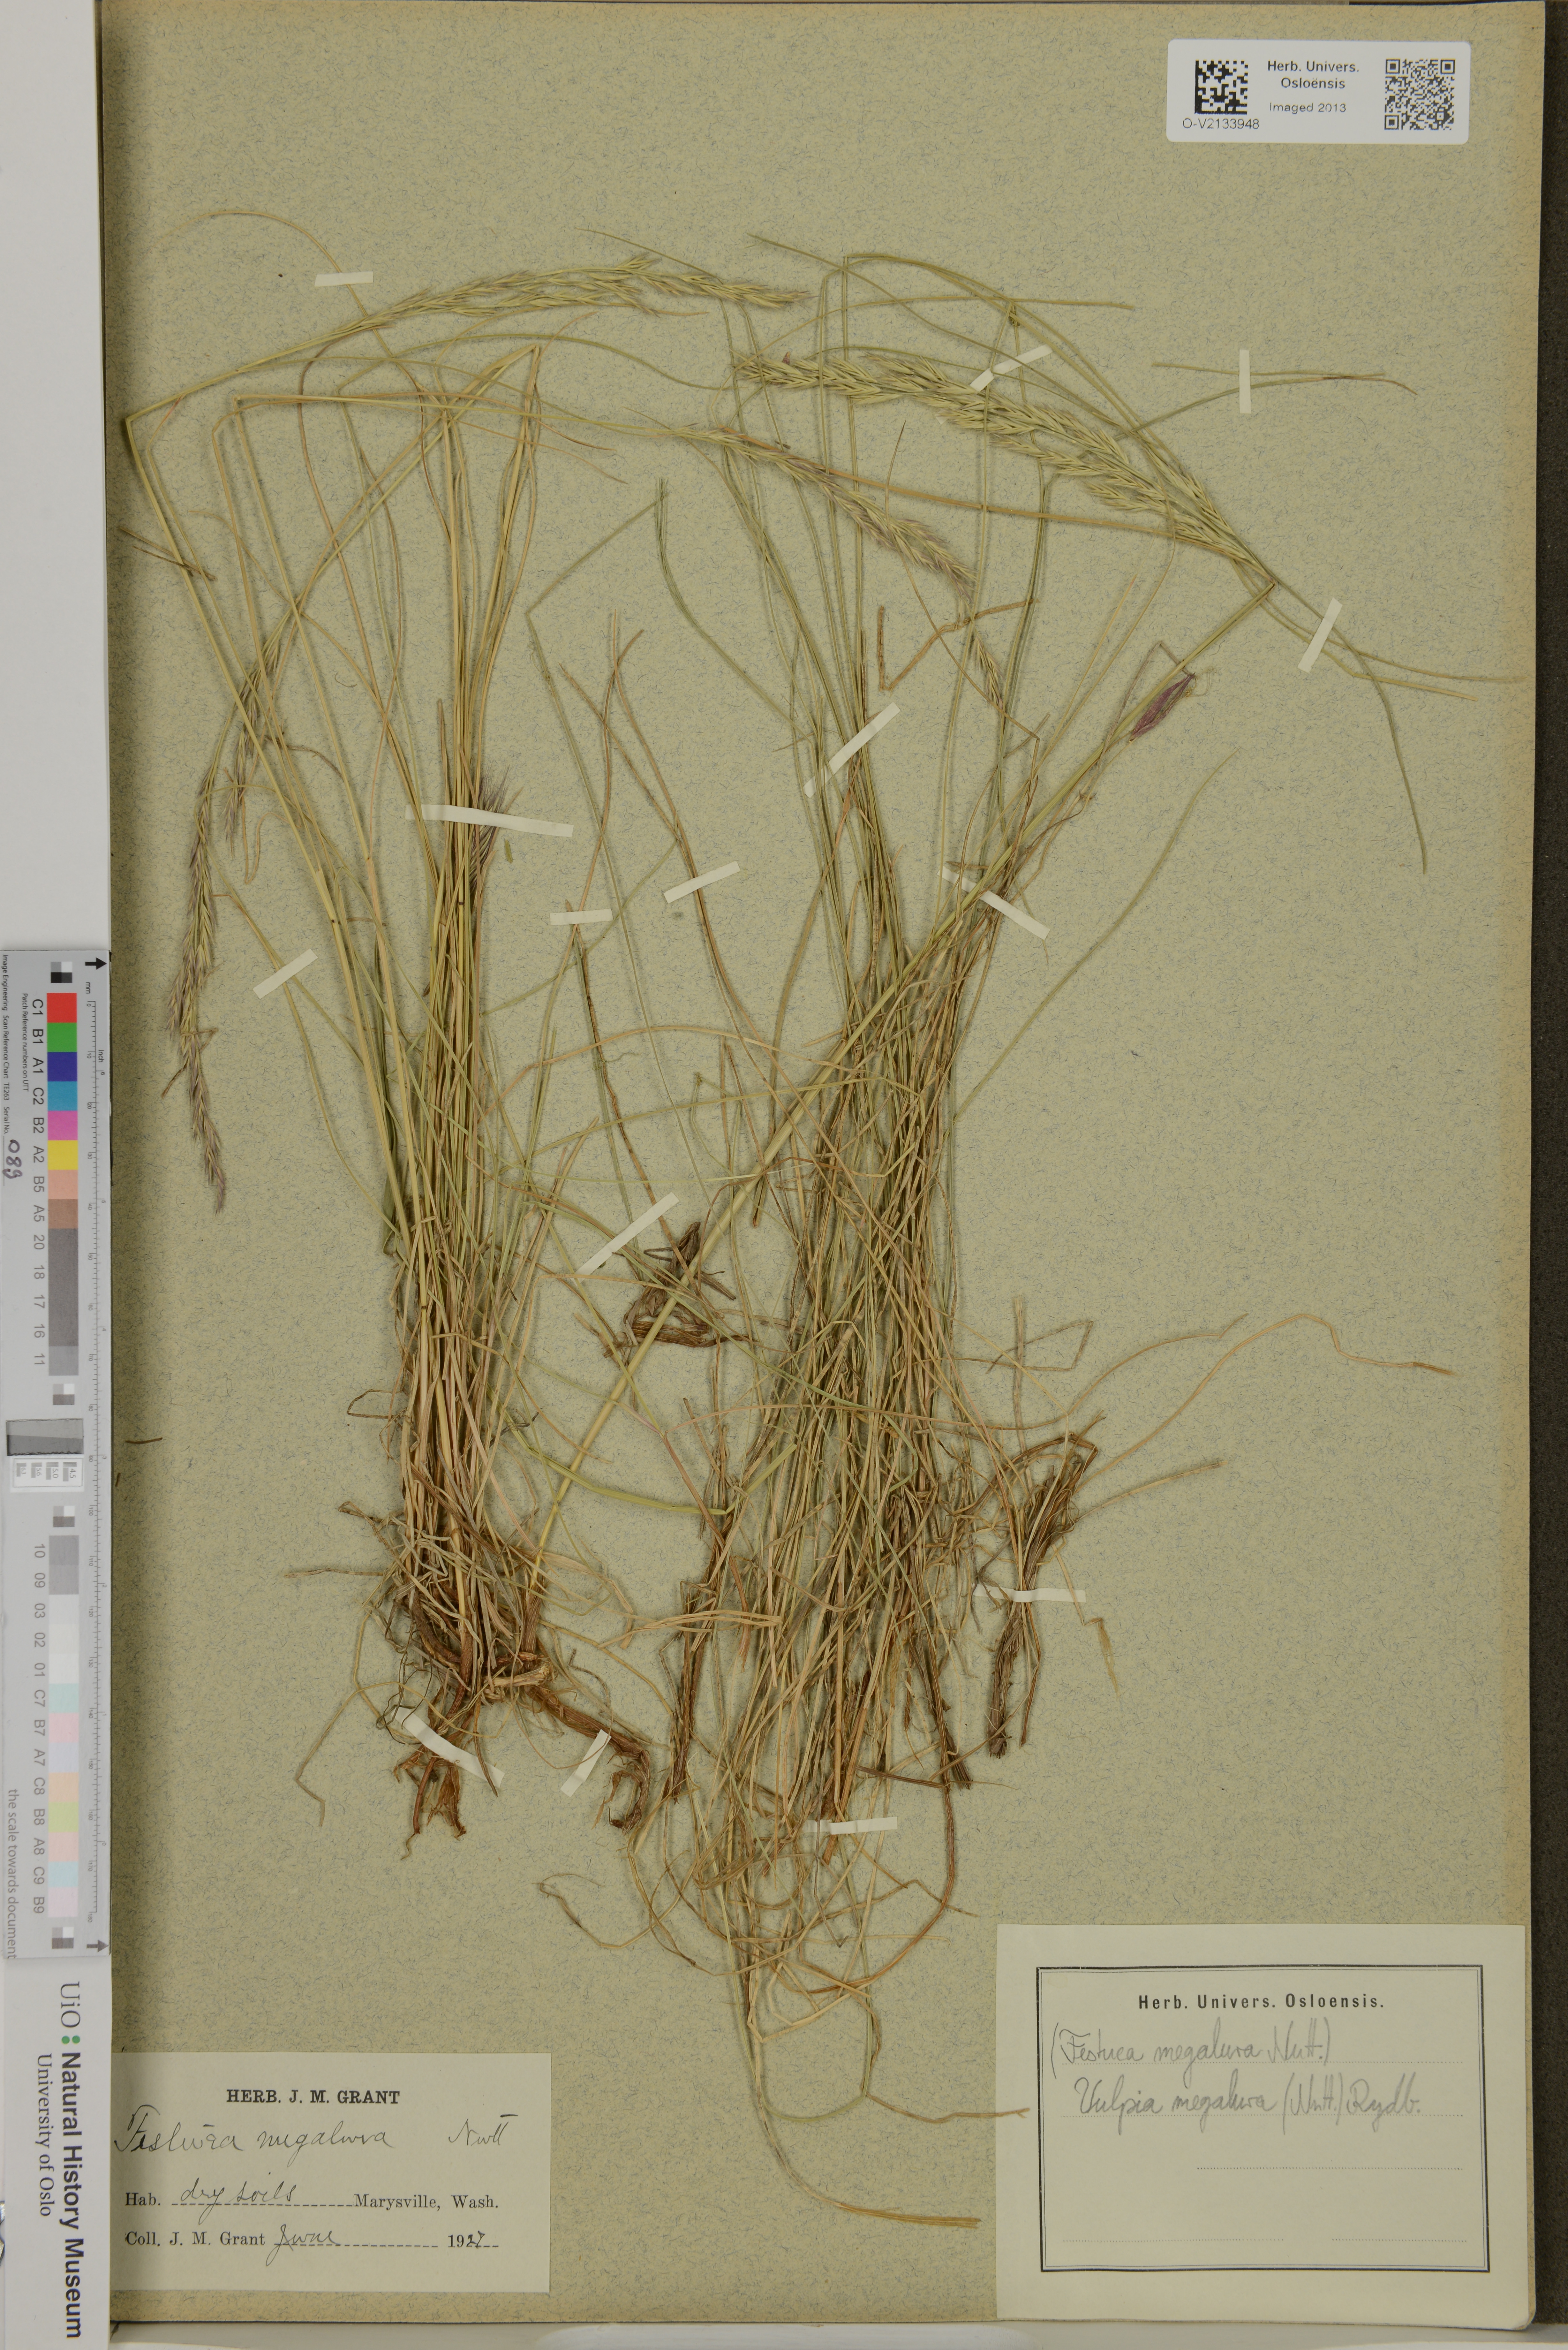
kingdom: Plantae
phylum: Tracheophyta
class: Liliopsida
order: Poales
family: Poaceae
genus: Festuca
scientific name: Festuca myuros
